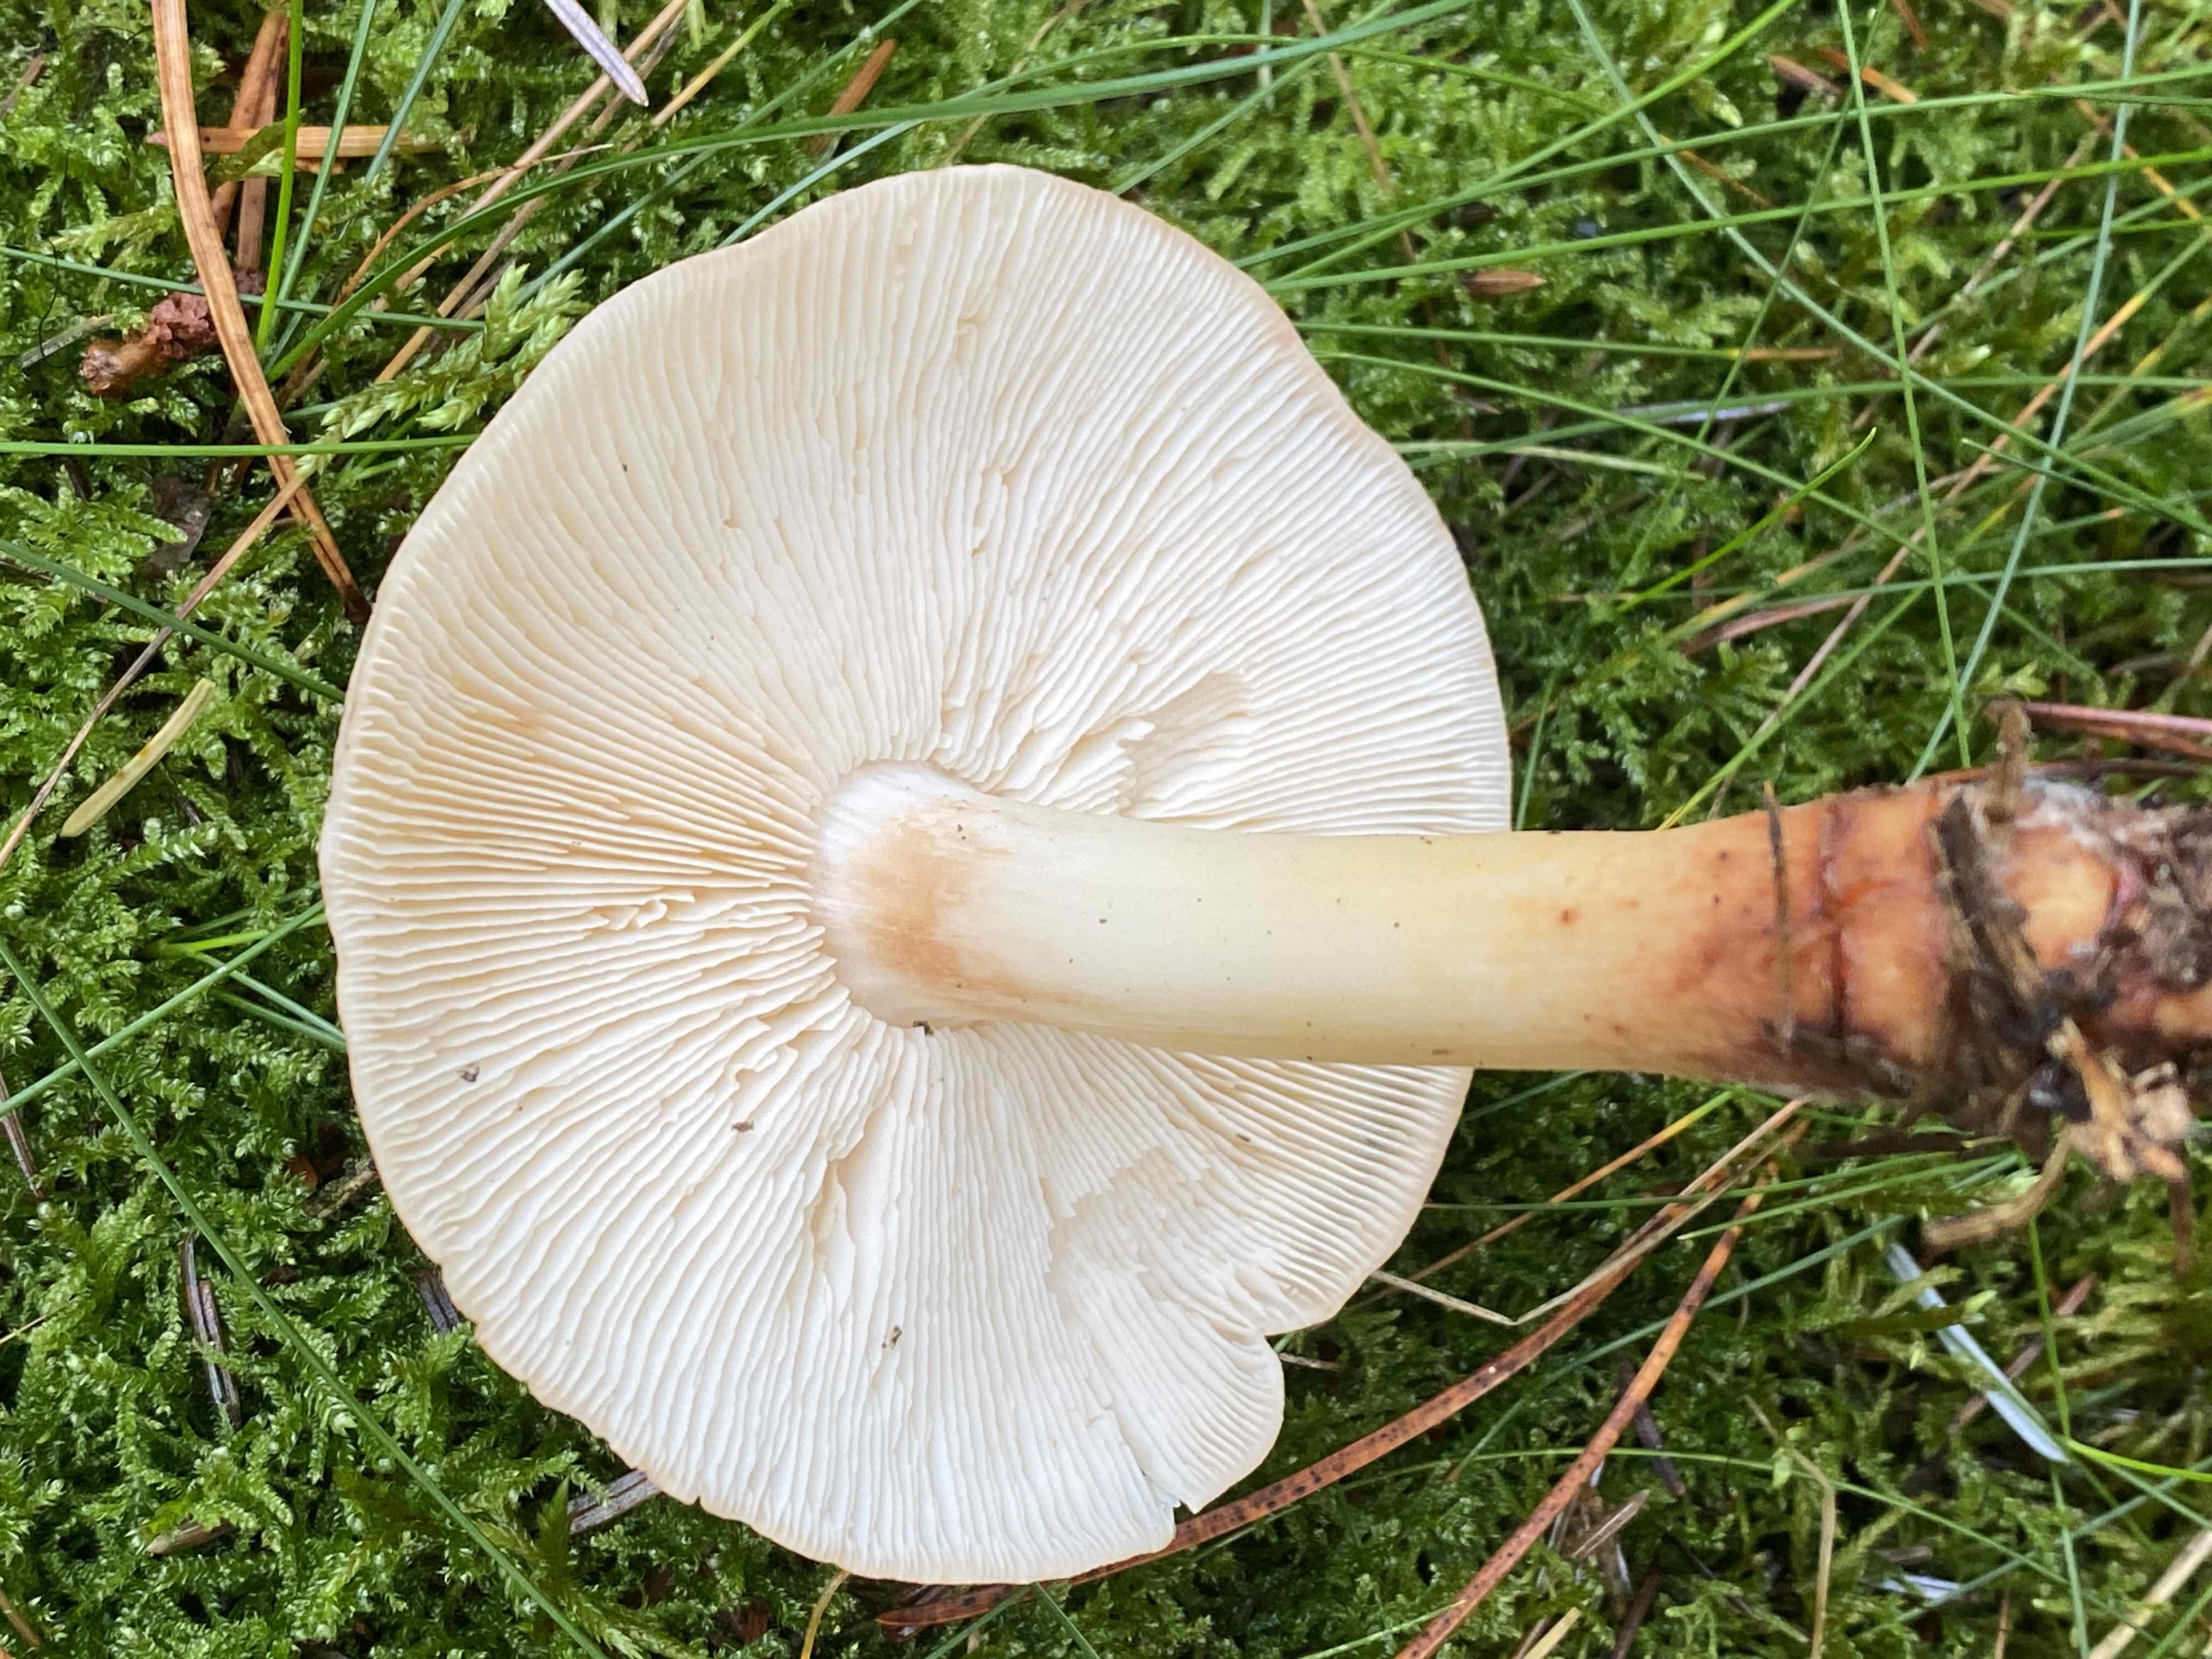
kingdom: Fungi
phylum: Basidiomycota
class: Agaricomycetes
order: Agaricales
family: Omphalotaceae
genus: Rhodocollybia
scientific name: Rhodocollybia maculata
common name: plettet fladhat
